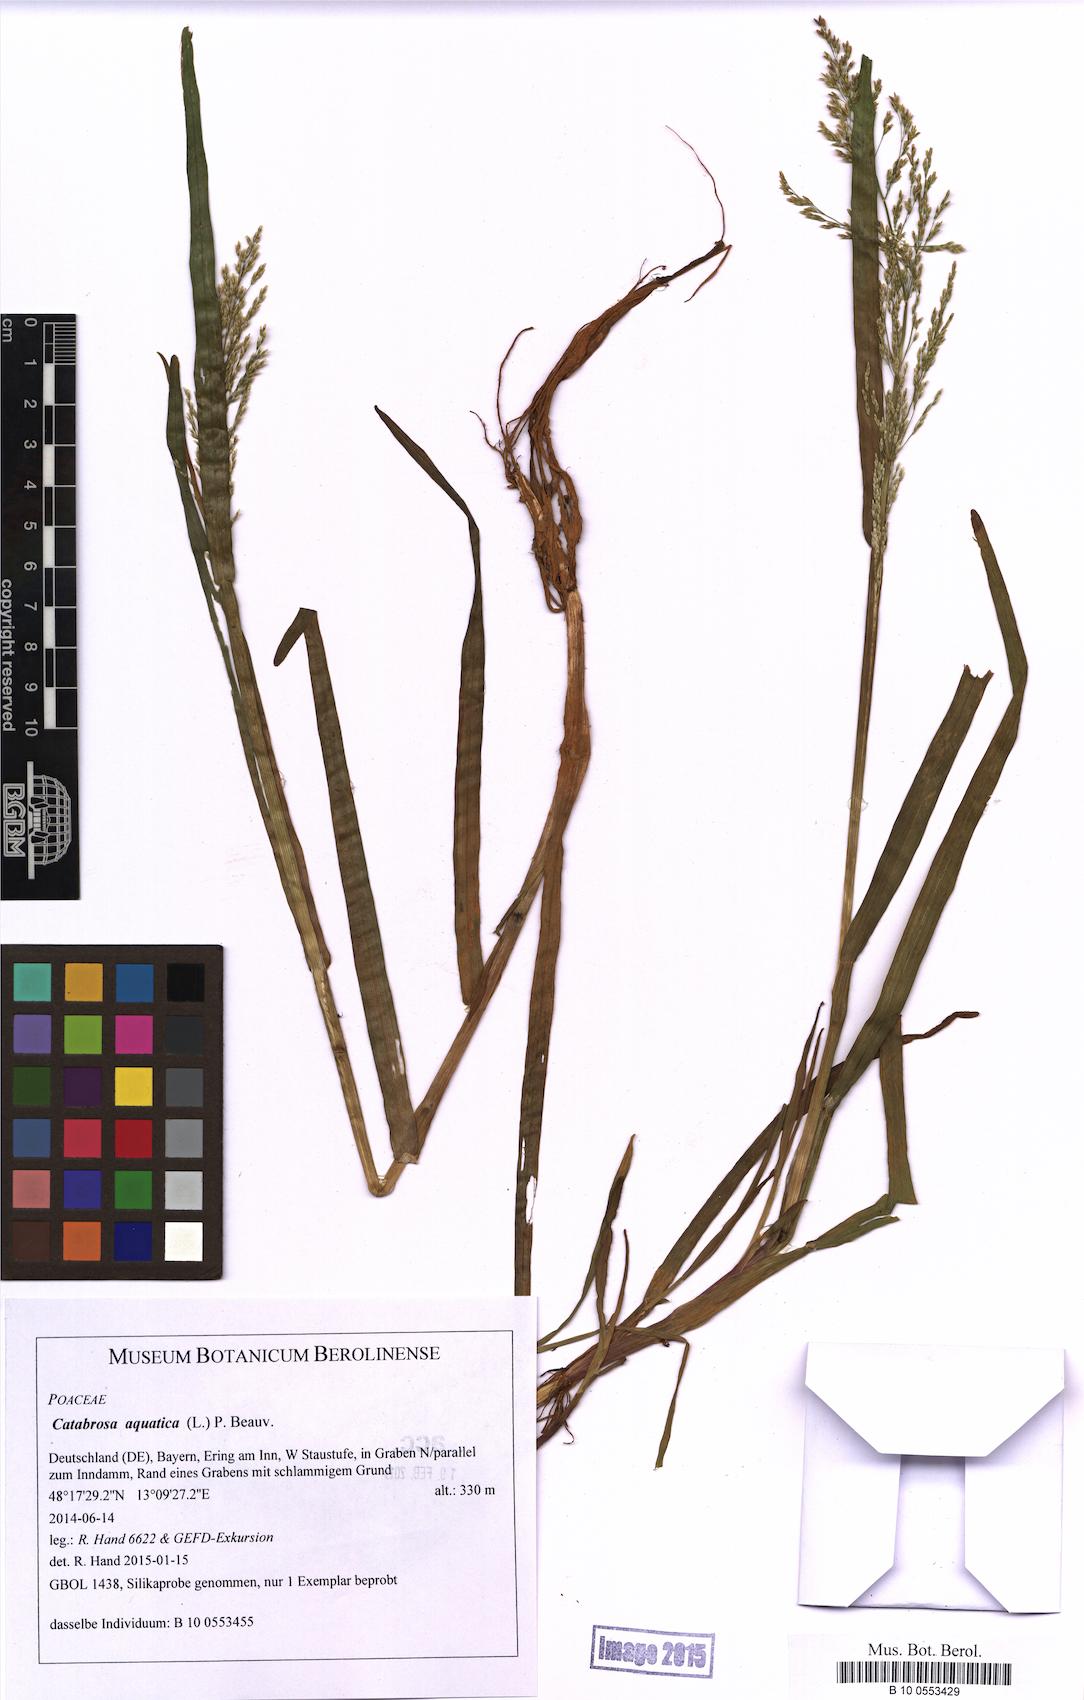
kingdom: Plantae
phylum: Tracheophyta
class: Liliopsida
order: Poales
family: Poaceae
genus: Catabrosa
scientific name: Catabrosa aquatica
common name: Whorl-grass
